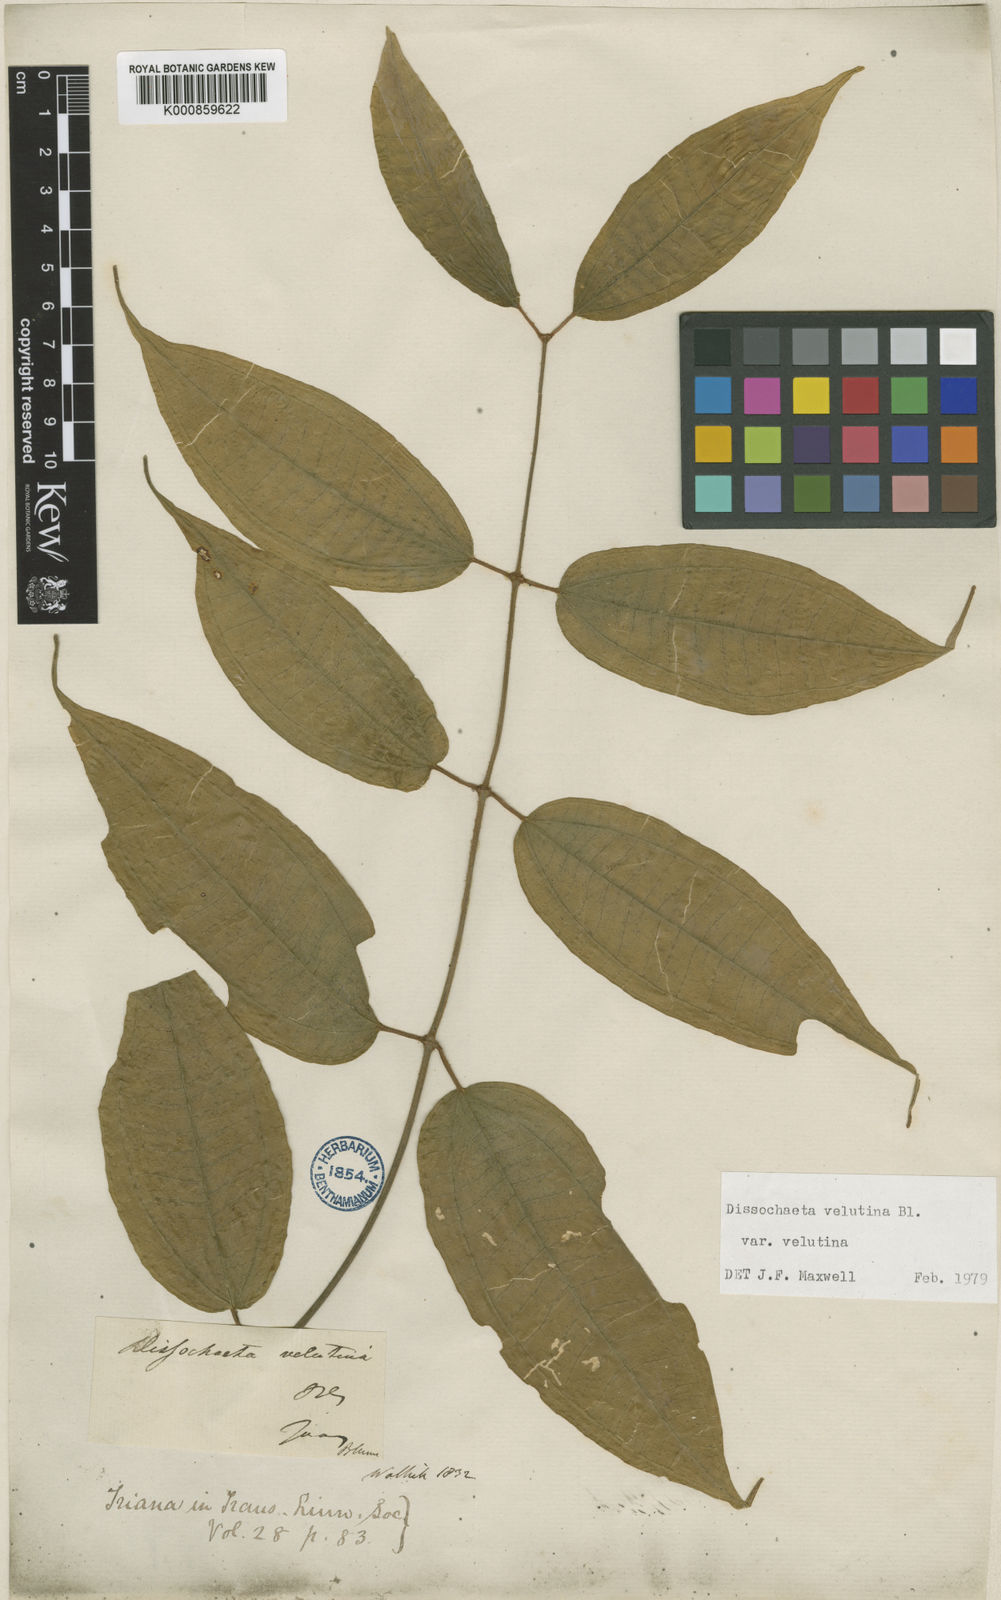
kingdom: Plantae
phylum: Tracheophyta
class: Magnoliopsida
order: Myrtales
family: Melastomataceae
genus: Dissochaeta
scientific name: Dissochaeta vacillans
